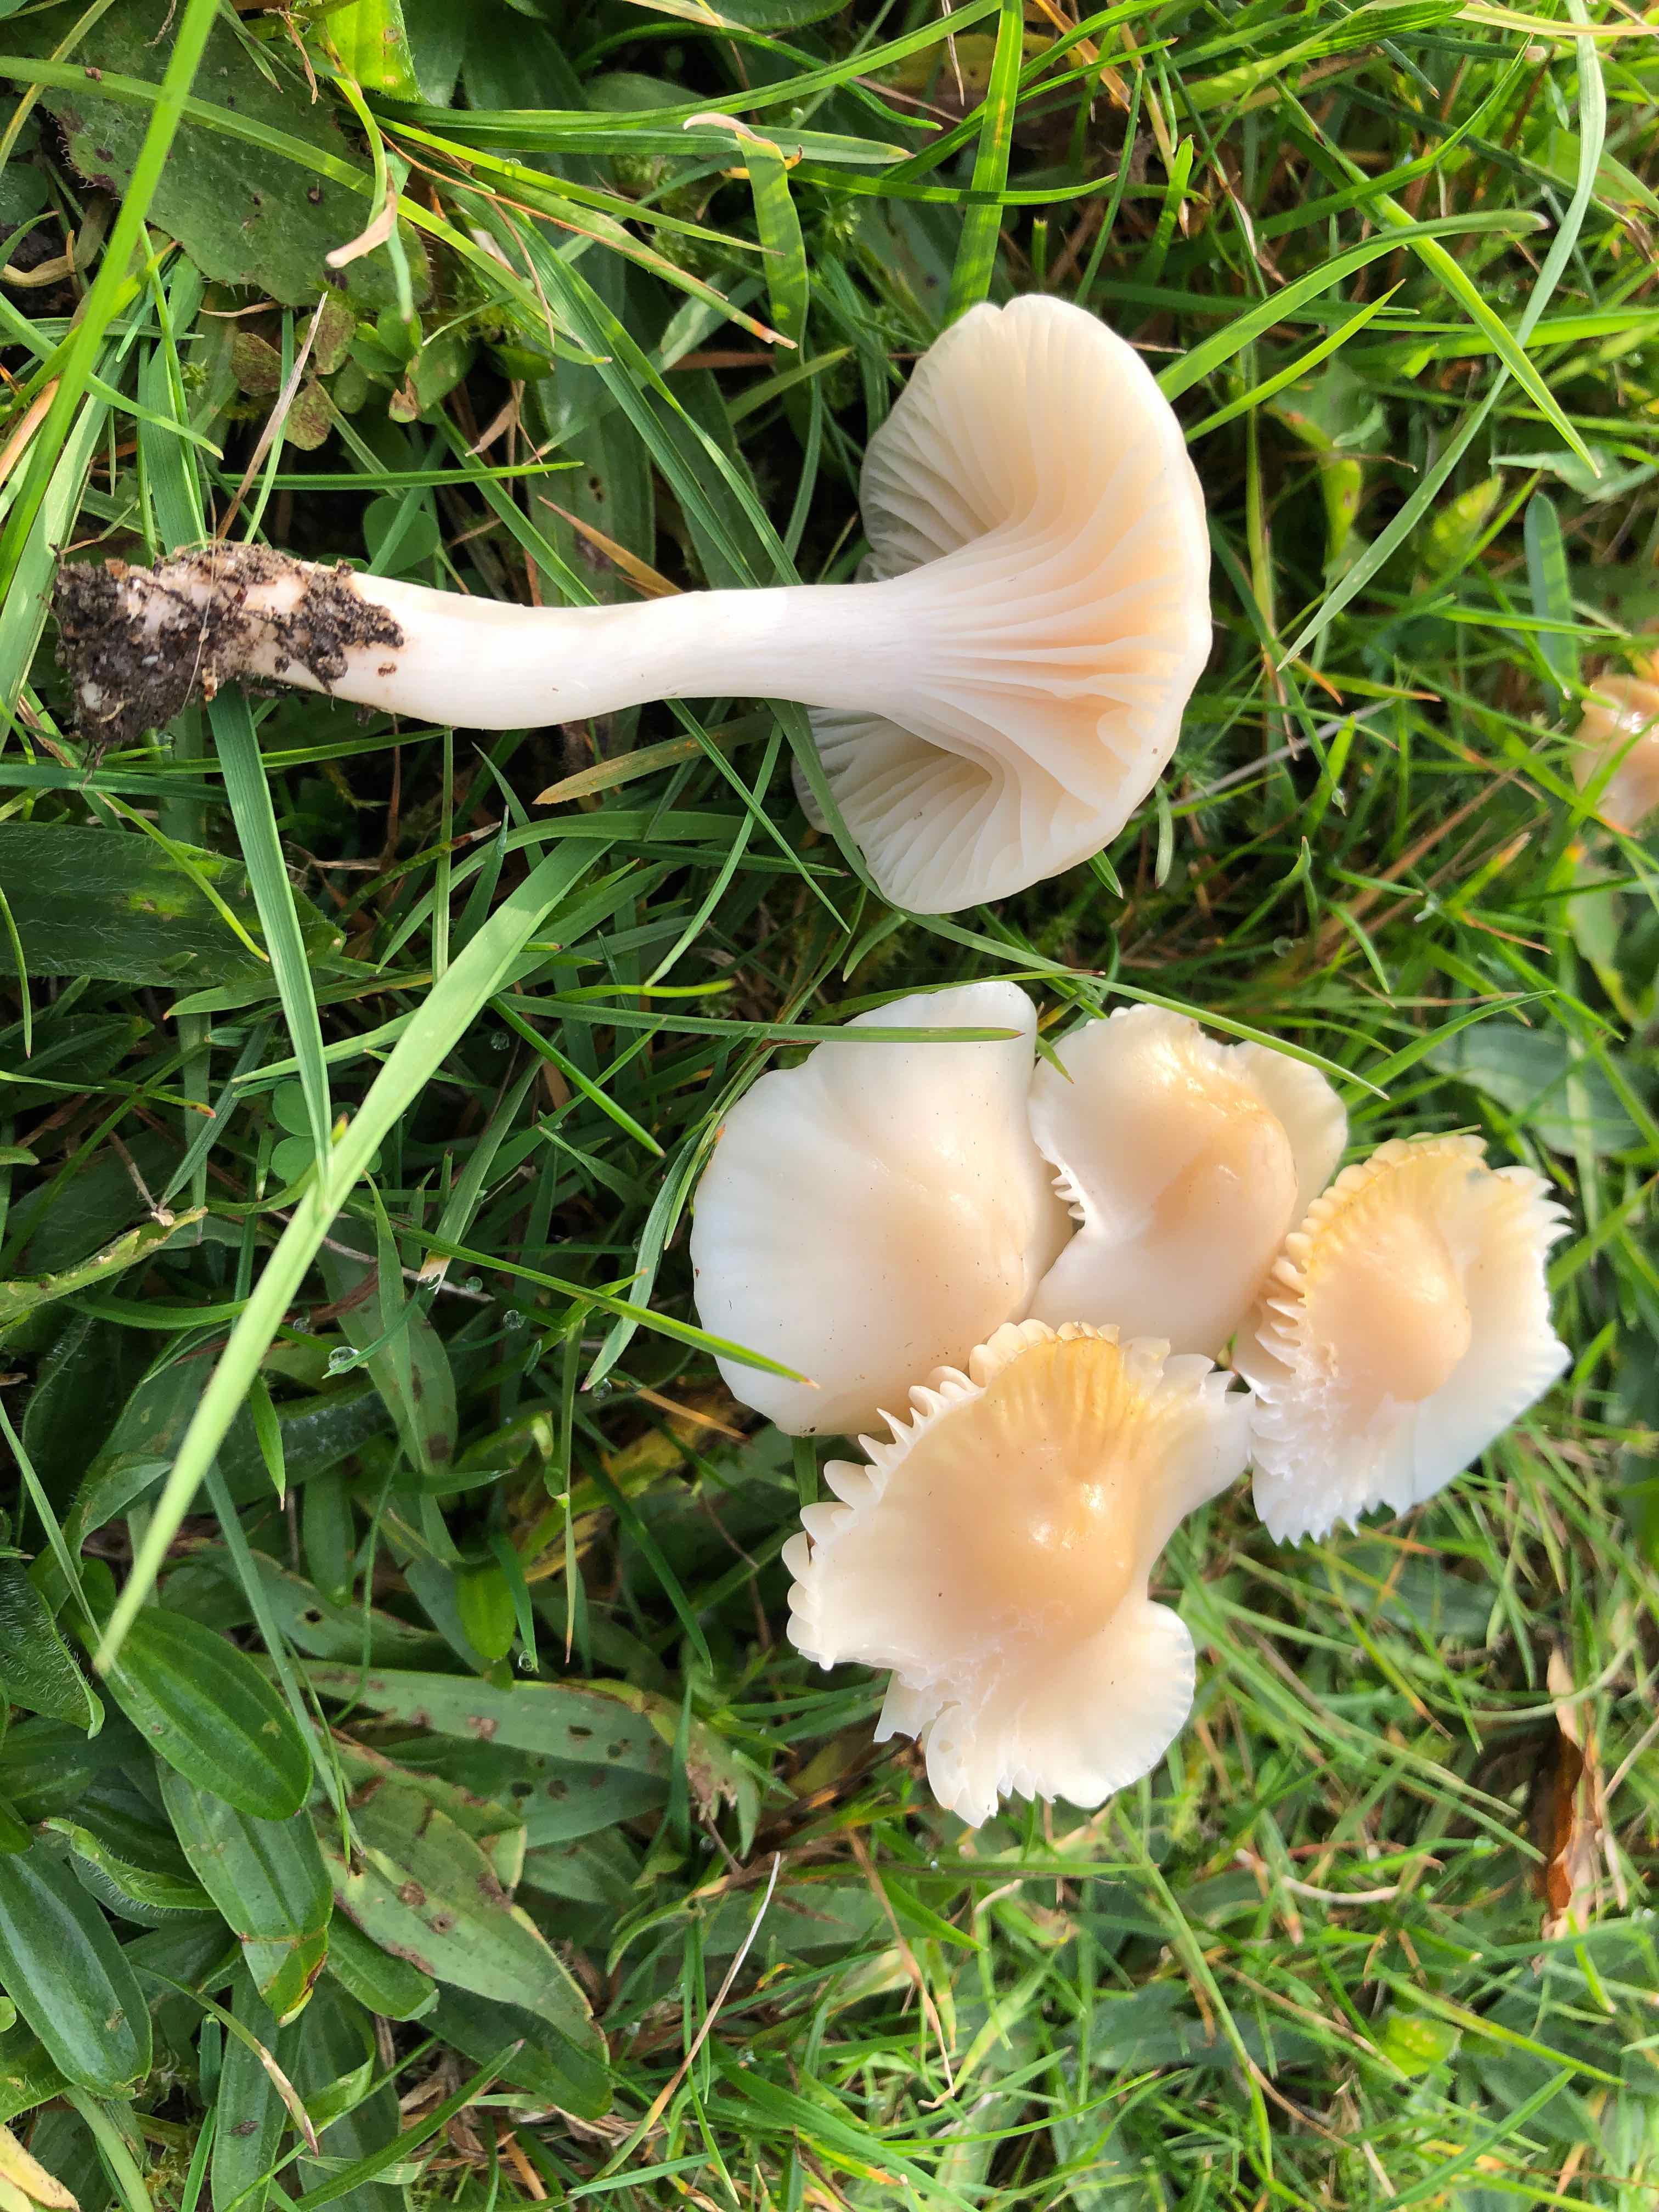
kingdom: Fungi
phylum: Basidiomycota
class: Agaricomycetes
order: Agaricales
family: Hygrophoraceae
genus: Cuphophyllus
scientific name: Cuphophyllus
